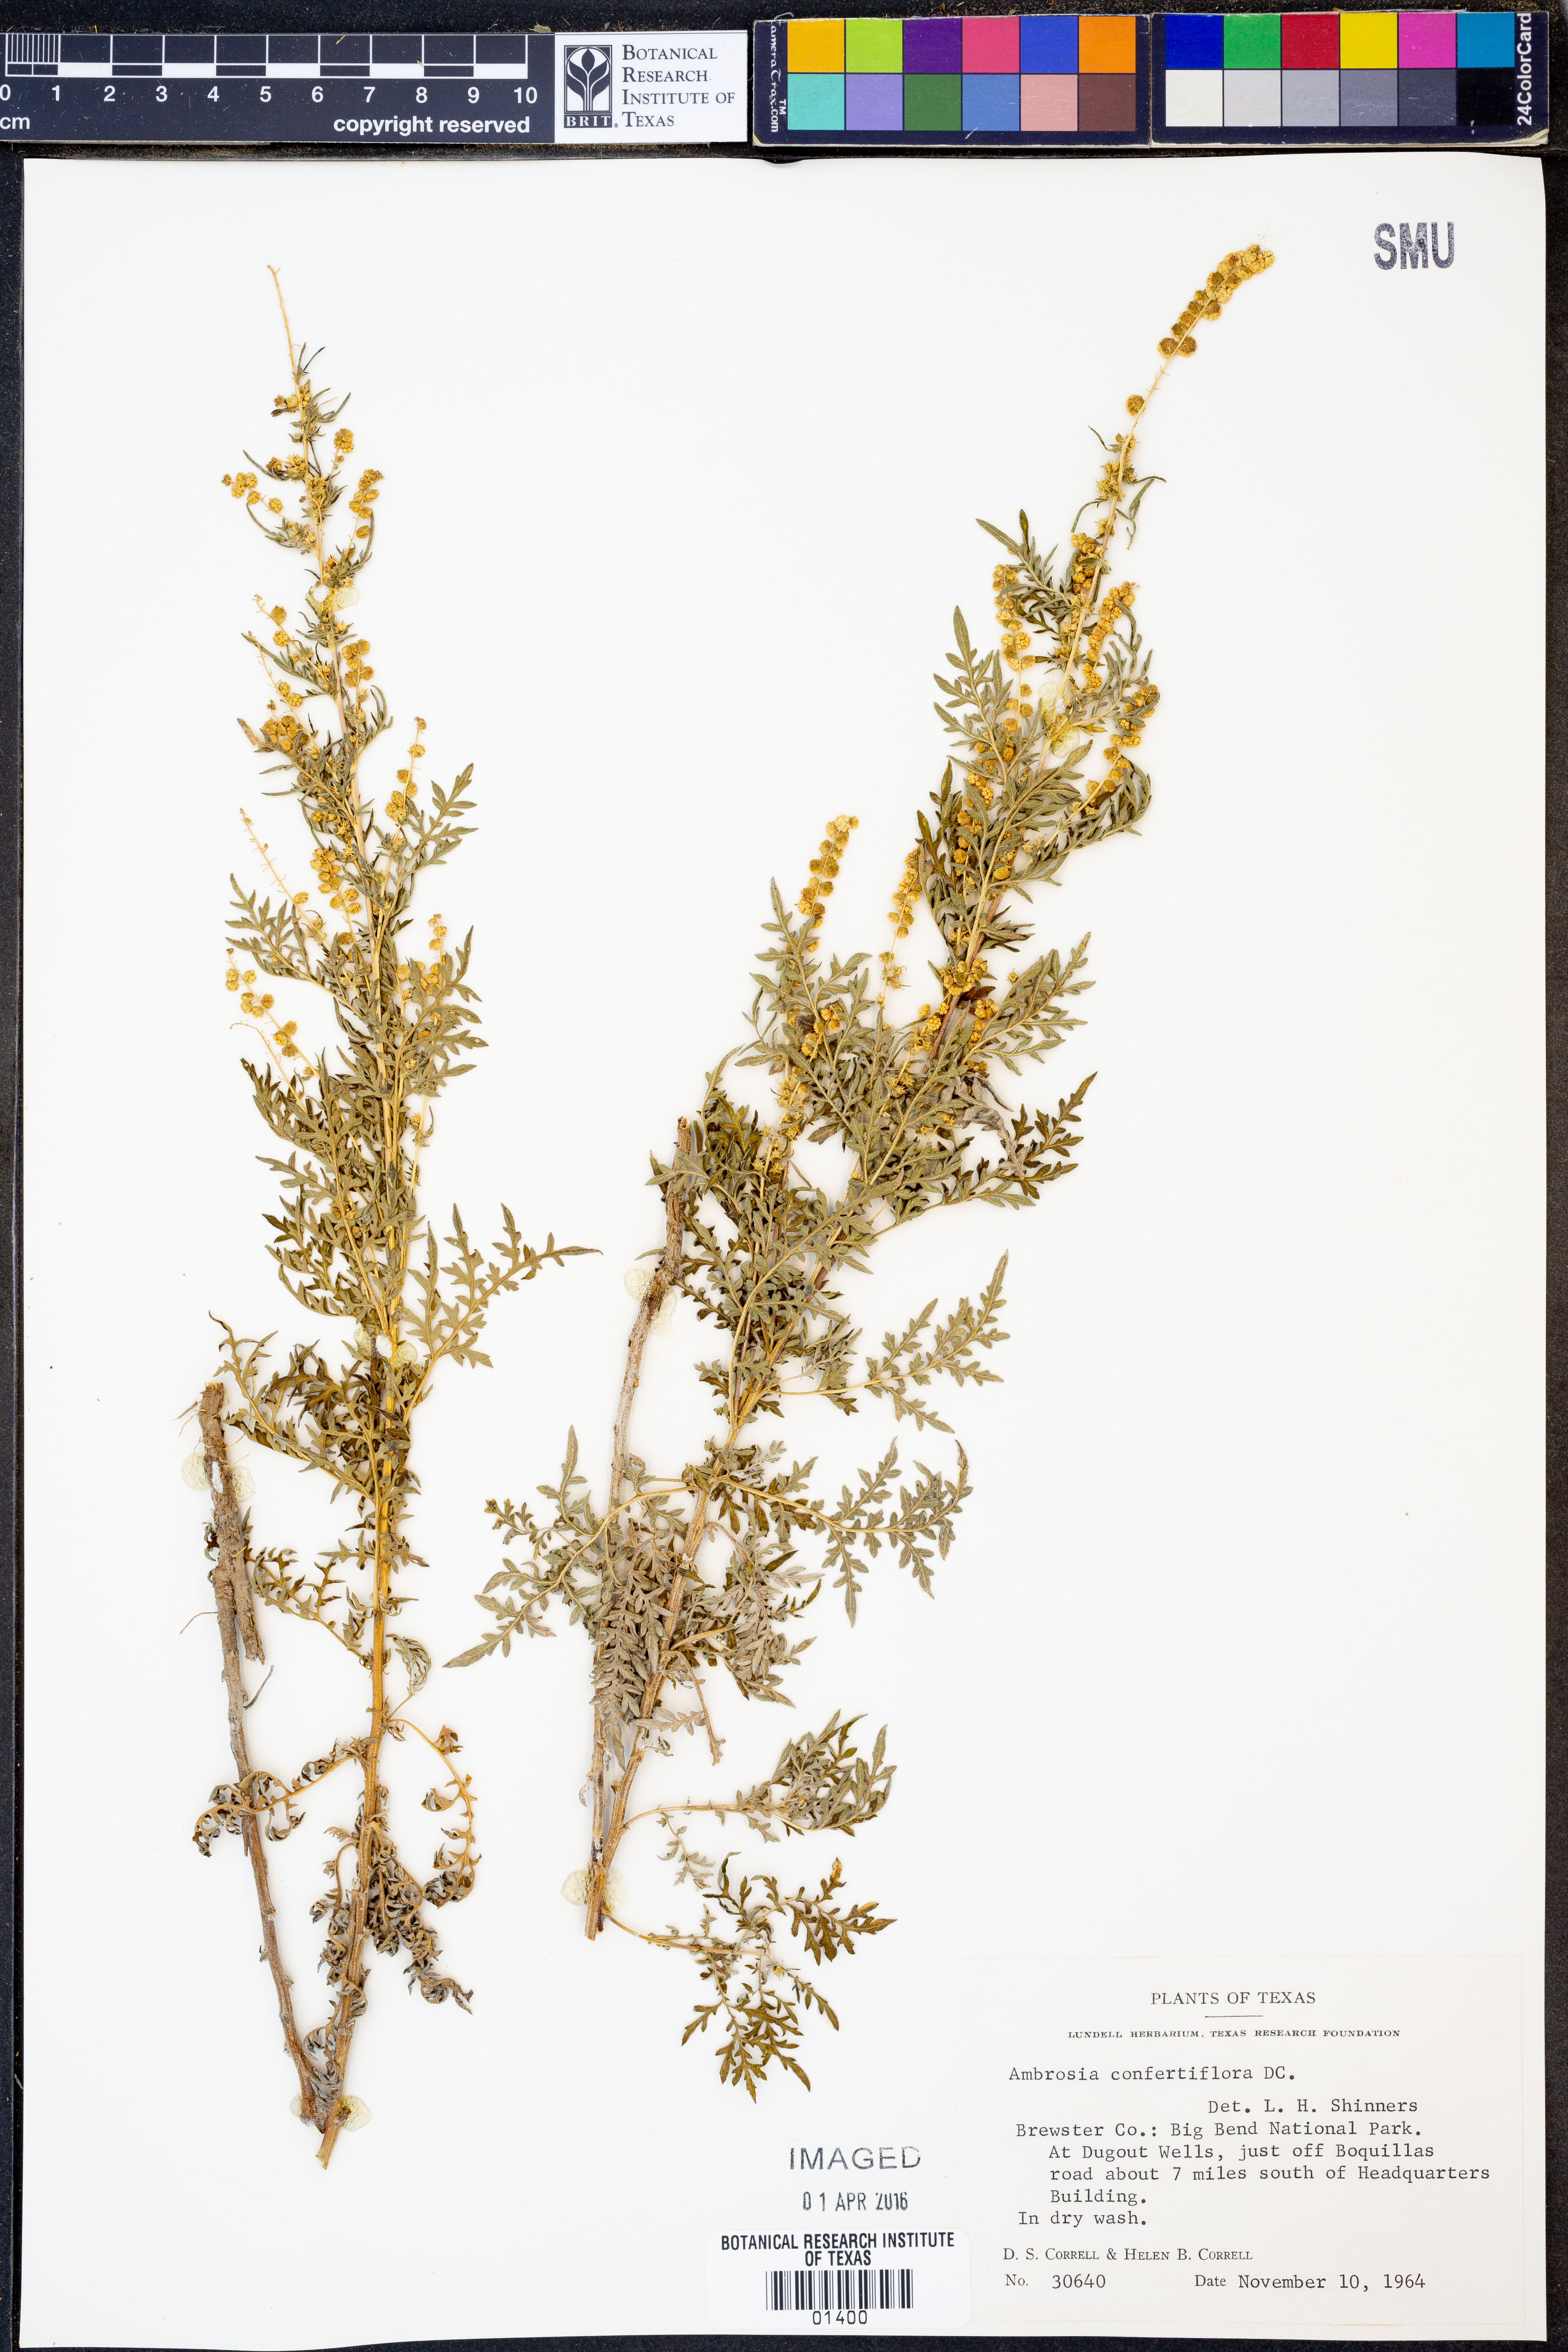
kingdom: Plantae
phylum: Tracheophyta
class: Magnoliopsida
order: Asterales
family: Asteraceae
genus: Ambrosia
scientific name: Ambrosia confertiflora
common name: Bur ragweed
